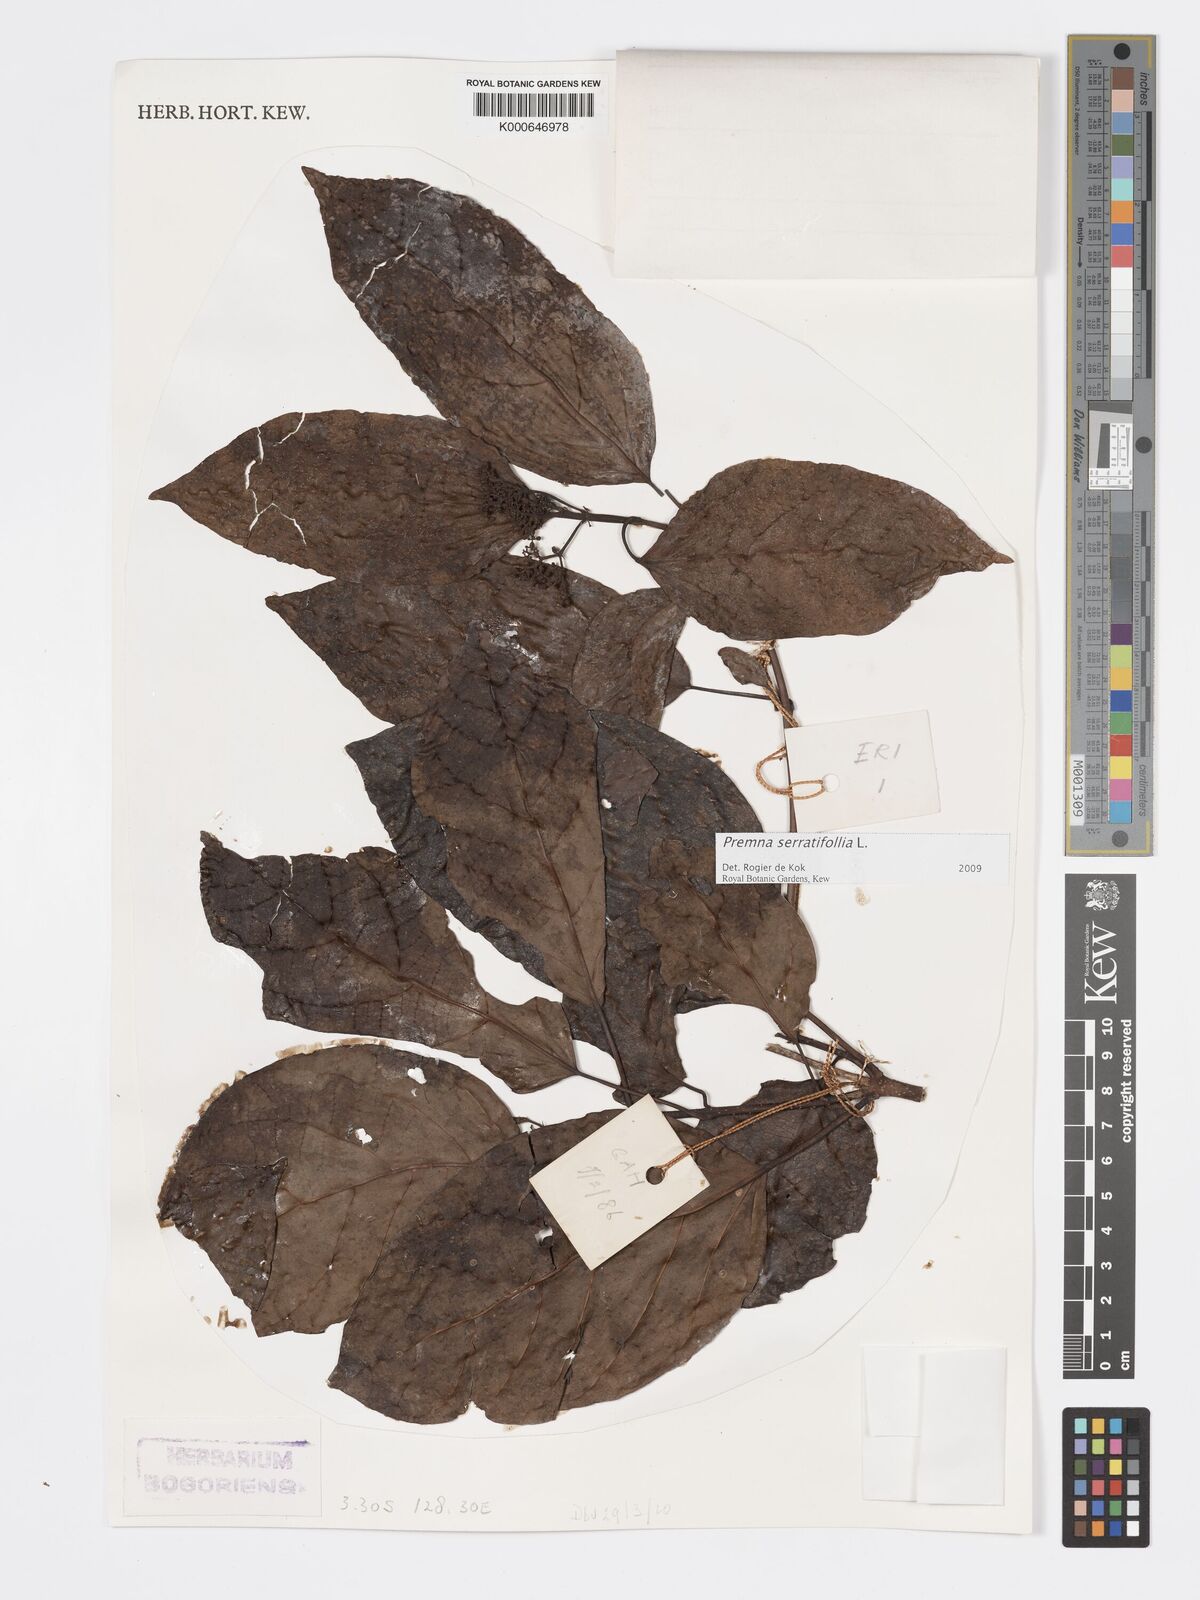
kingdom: Plantae
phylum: Tracheophyta
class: Magnoliopsida
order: Lamiales
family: Lamiaceae
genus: Premna
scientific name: Premna serratifolia
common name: Bastard guelder
